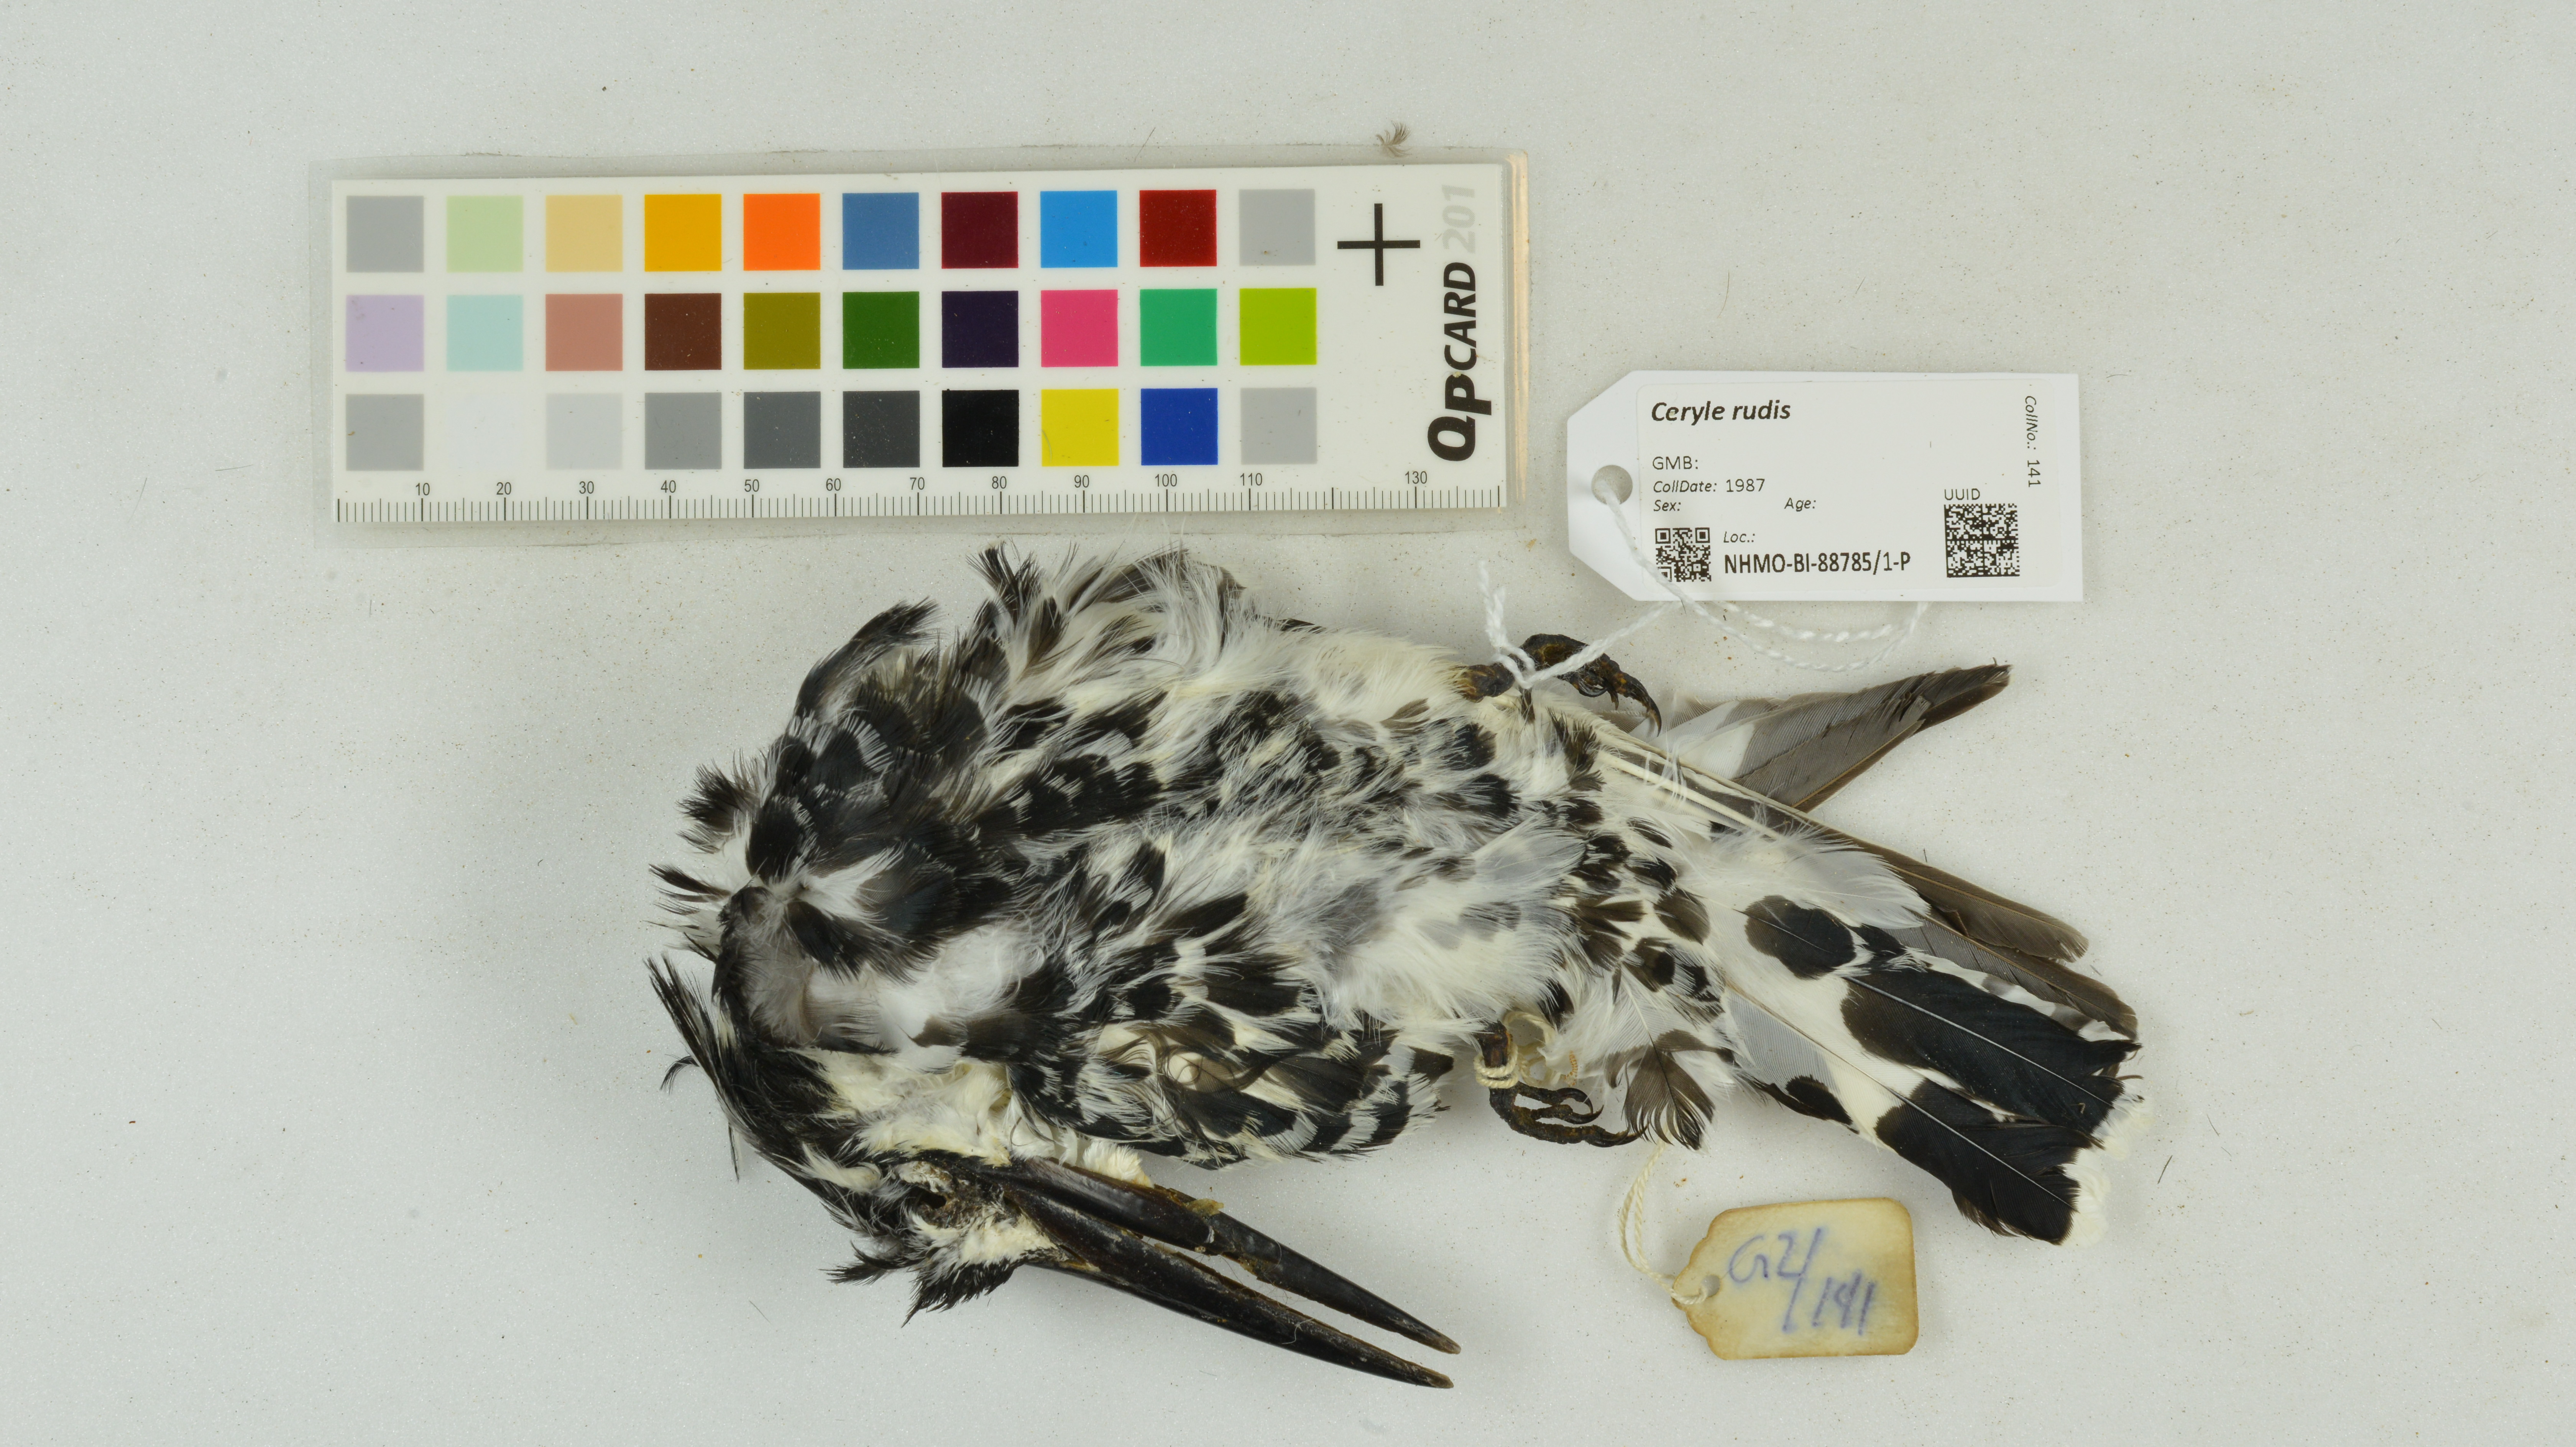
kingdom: Animalia
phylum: Chordata
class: Aves
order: Coraciiformes
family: Alcedinidae
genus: Ceryle
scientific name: Ceryle rudis
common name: Pied kingfisher
